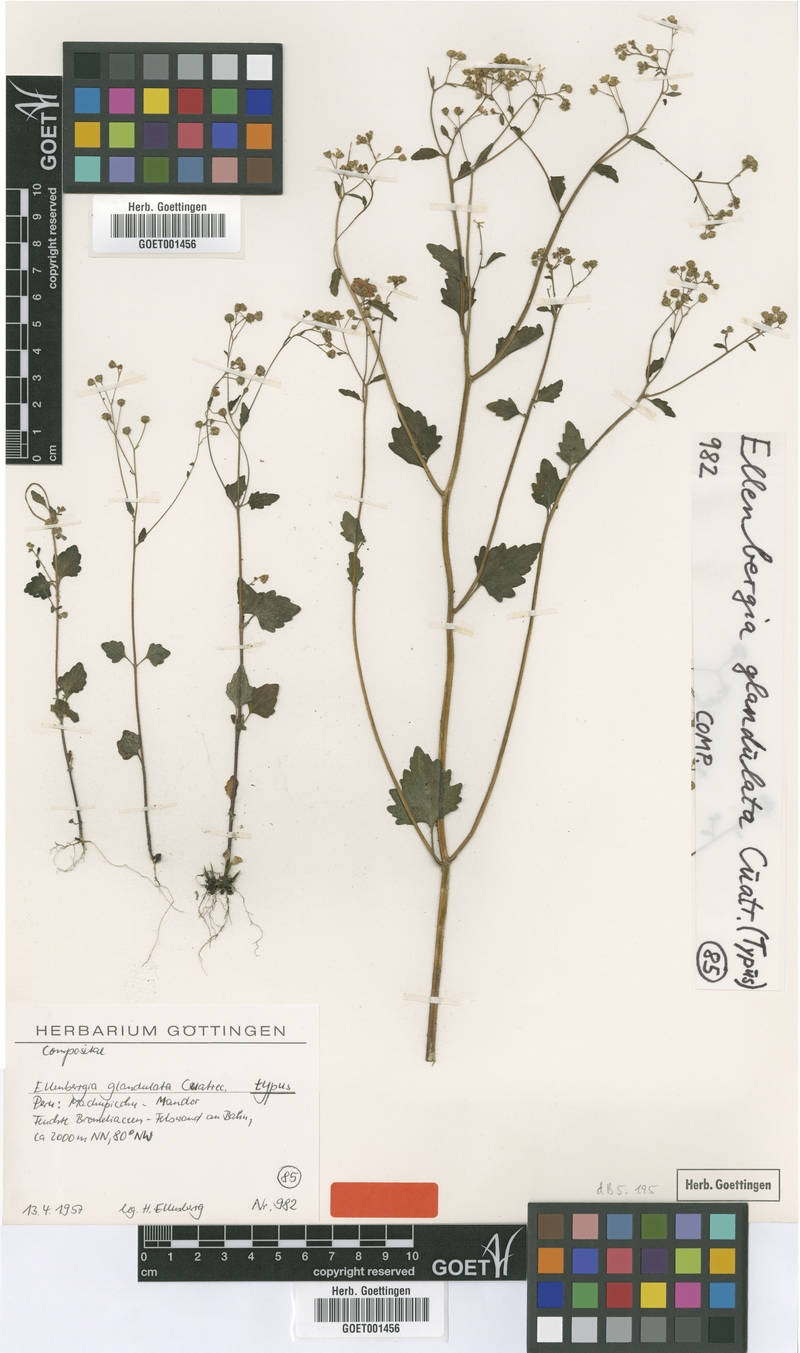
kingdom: Plantae
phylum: Tracheophyta
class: Magnoliopsida
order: Asterales
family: Asteraceae
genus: Ellenbergia
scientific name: Ellenbergia glandulata
